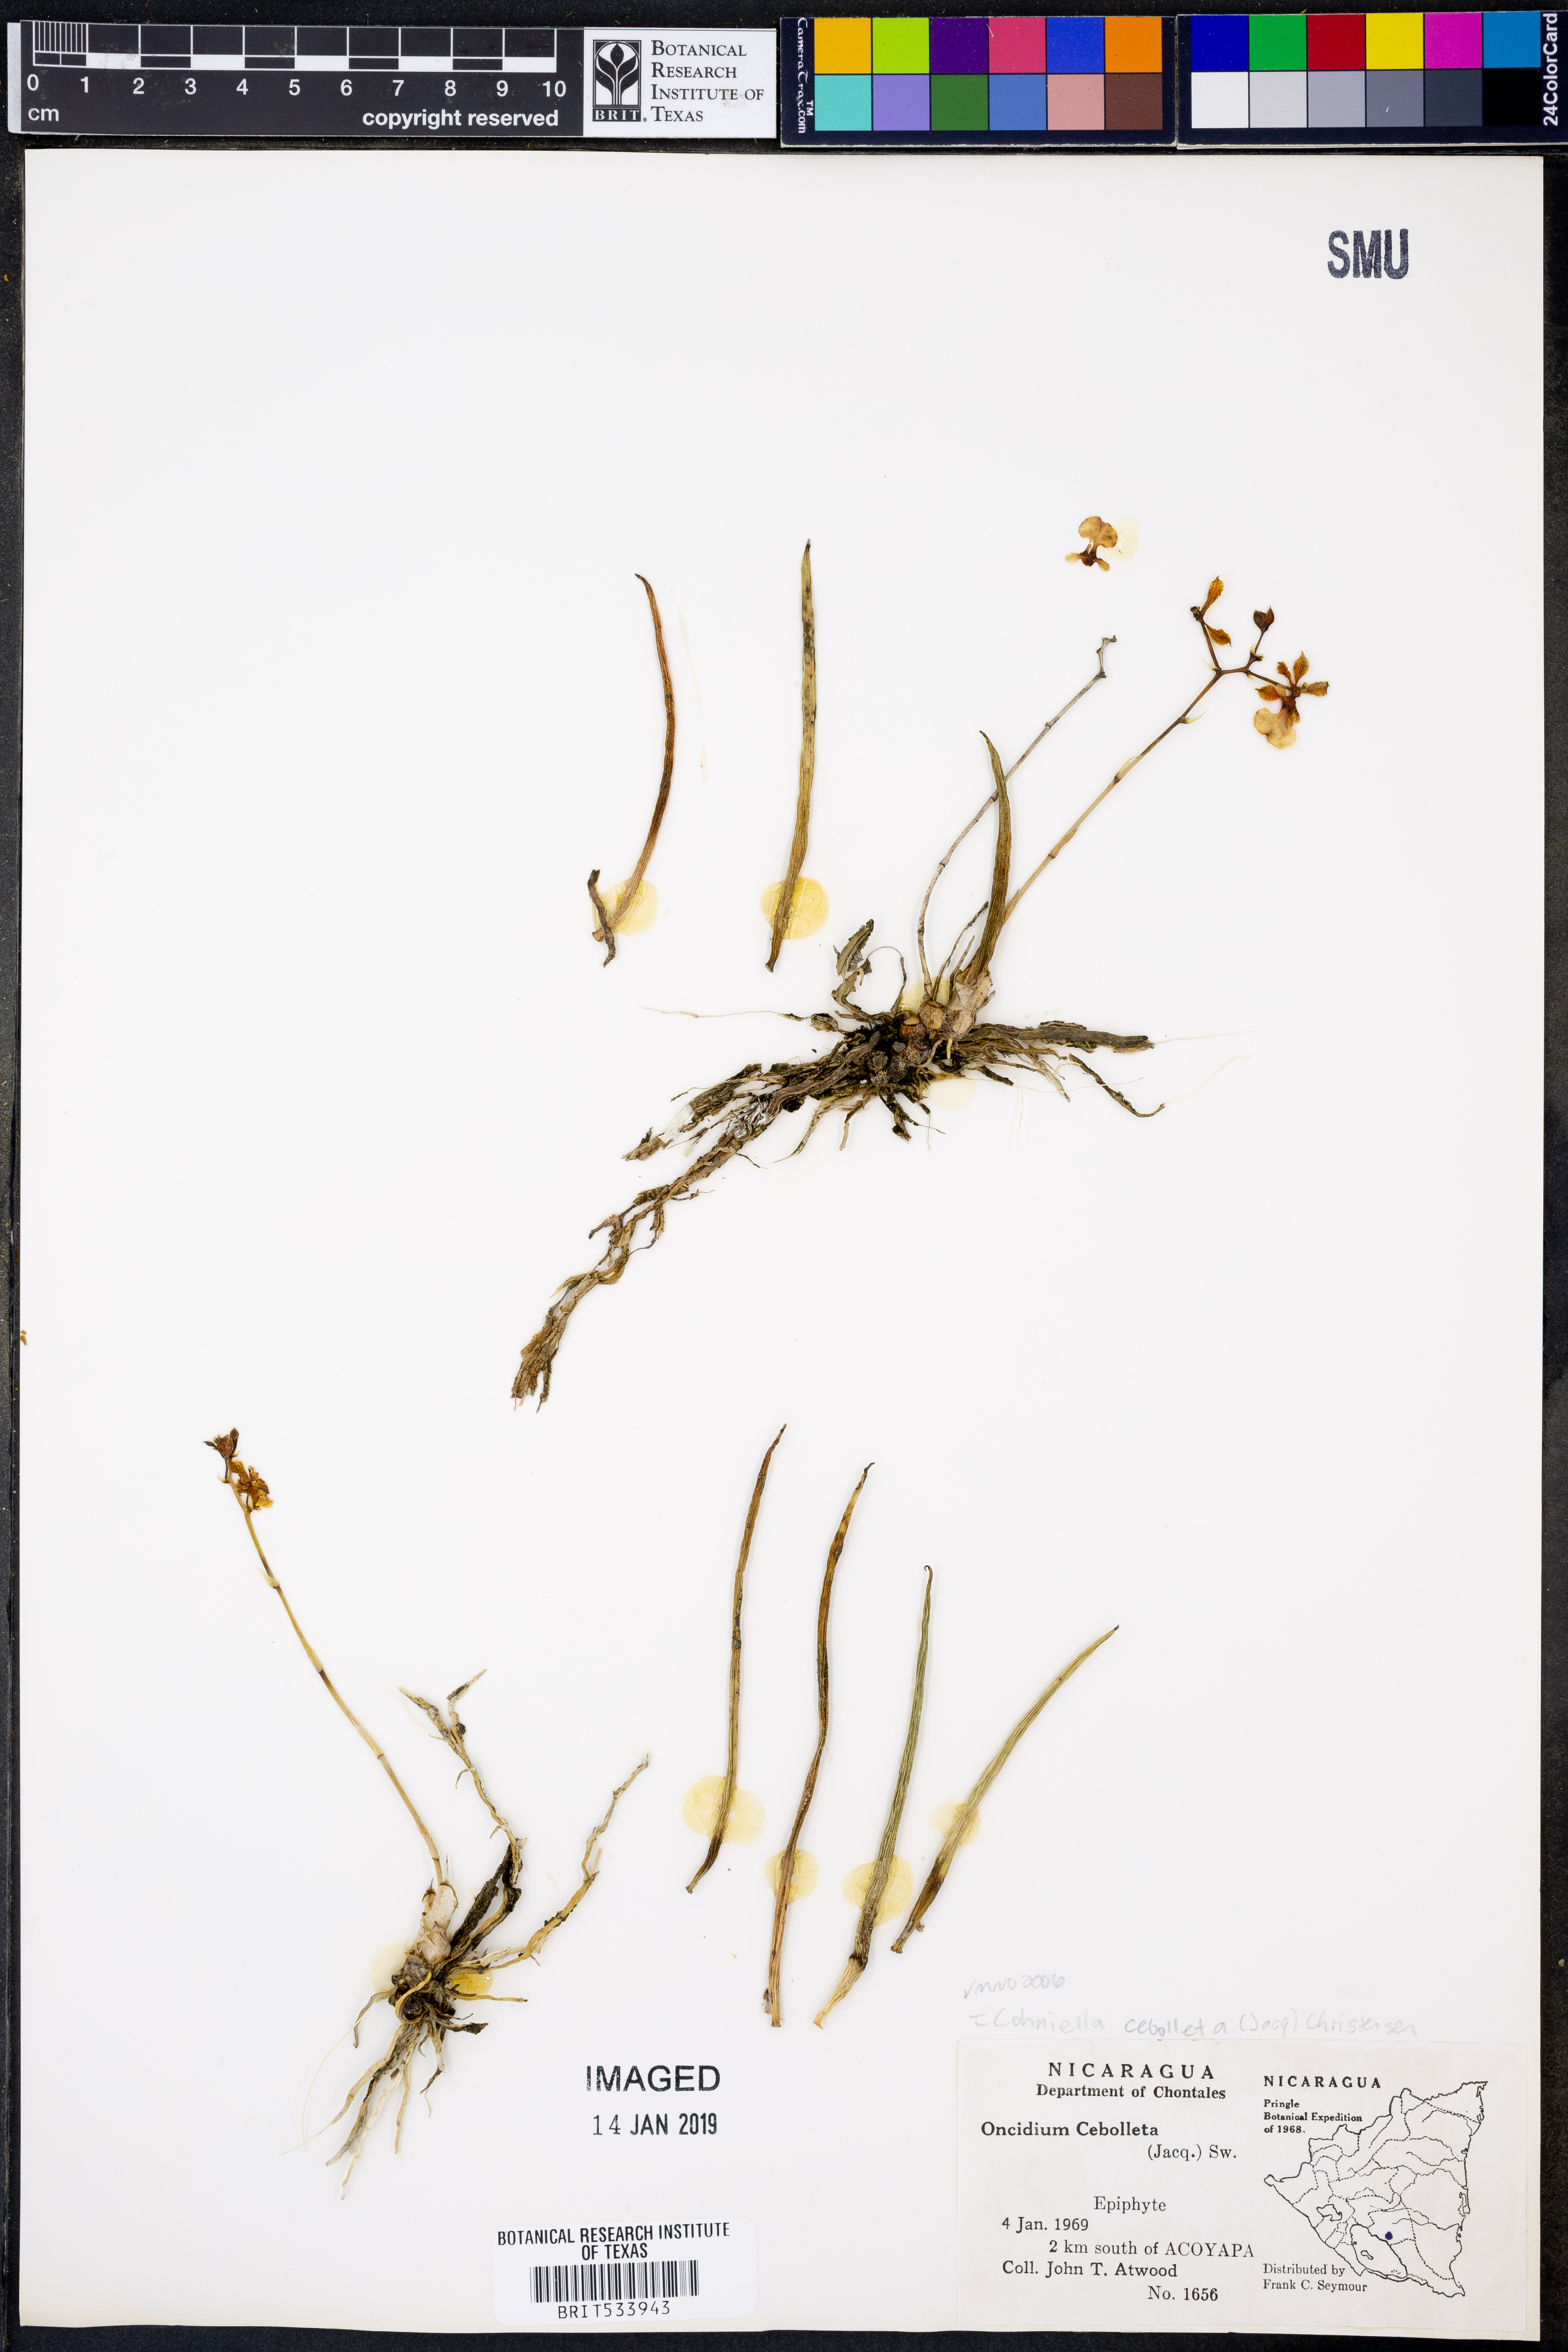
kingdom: Plantae
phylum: Tracheophyta
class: Liliopsida
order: Asparagales
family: Orchidaceae
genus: Trichocentrum
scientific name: Trichocentrum cebolleta
